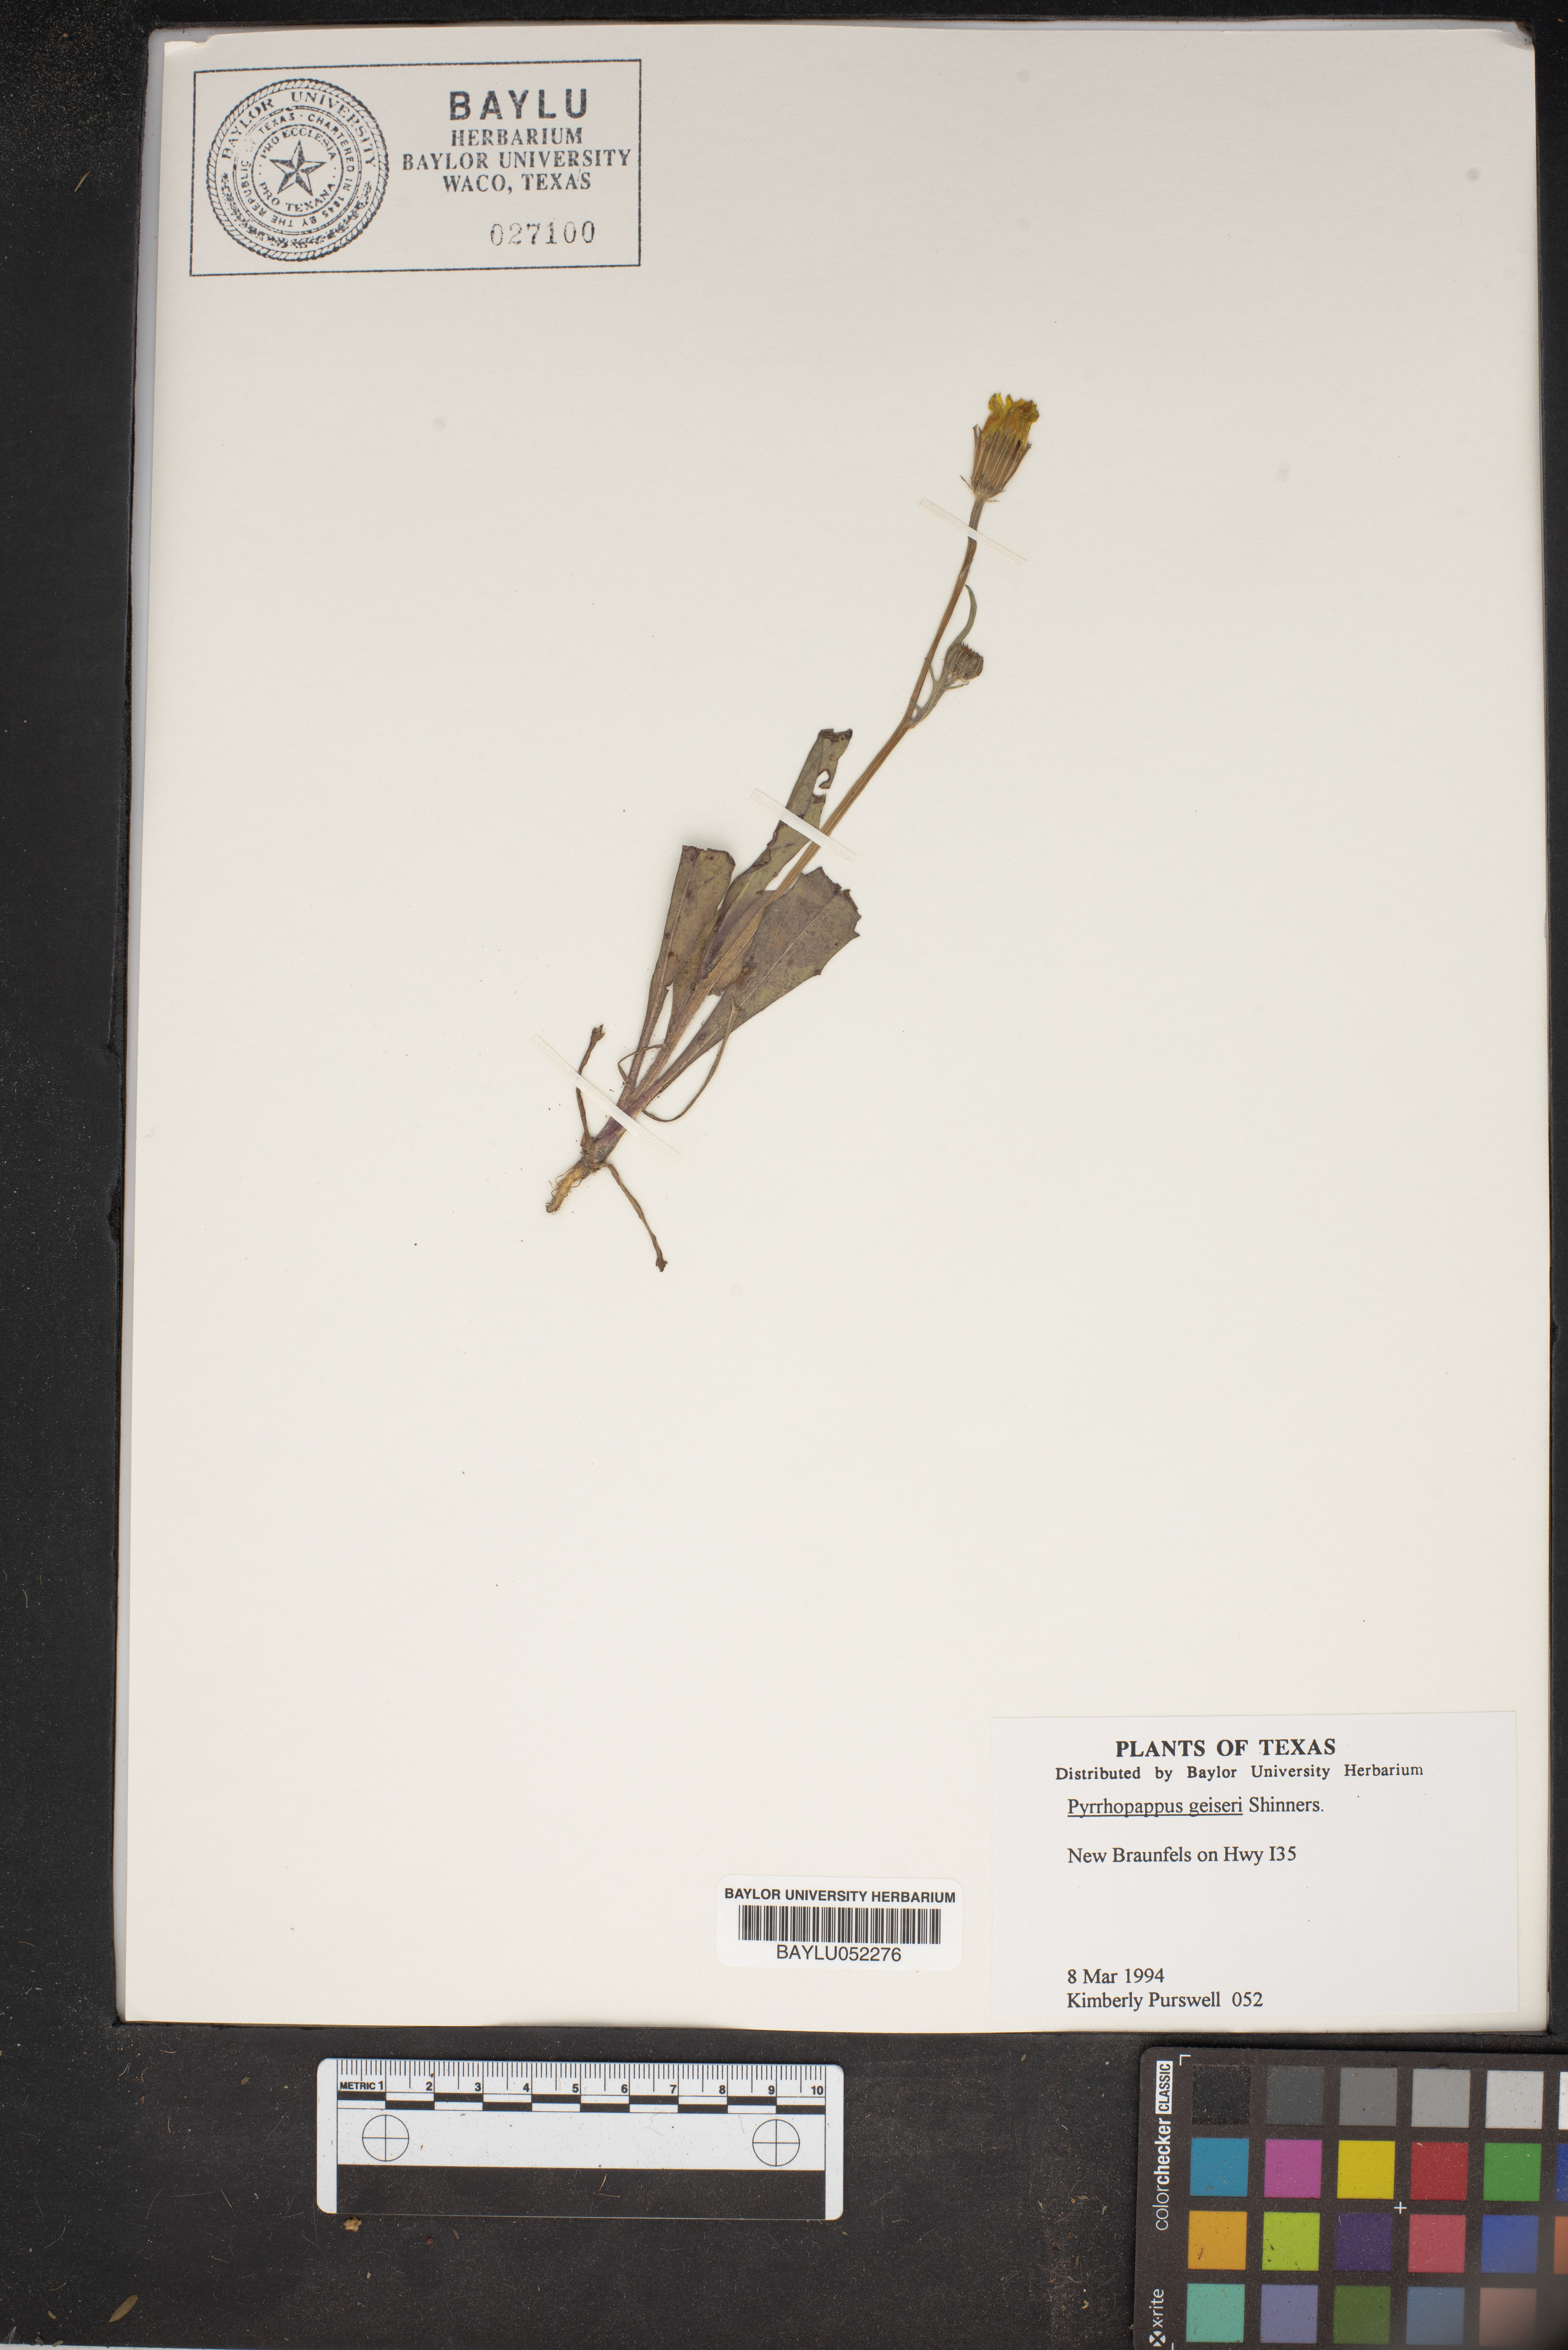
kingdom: Plantae
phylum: Tracheophyta
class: Magnoliopsida
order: Asterales
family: Asteraceae
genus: Pyrrhopappus
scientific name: Pyrrhopappus pauciflorus
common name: Texas false dandelion
